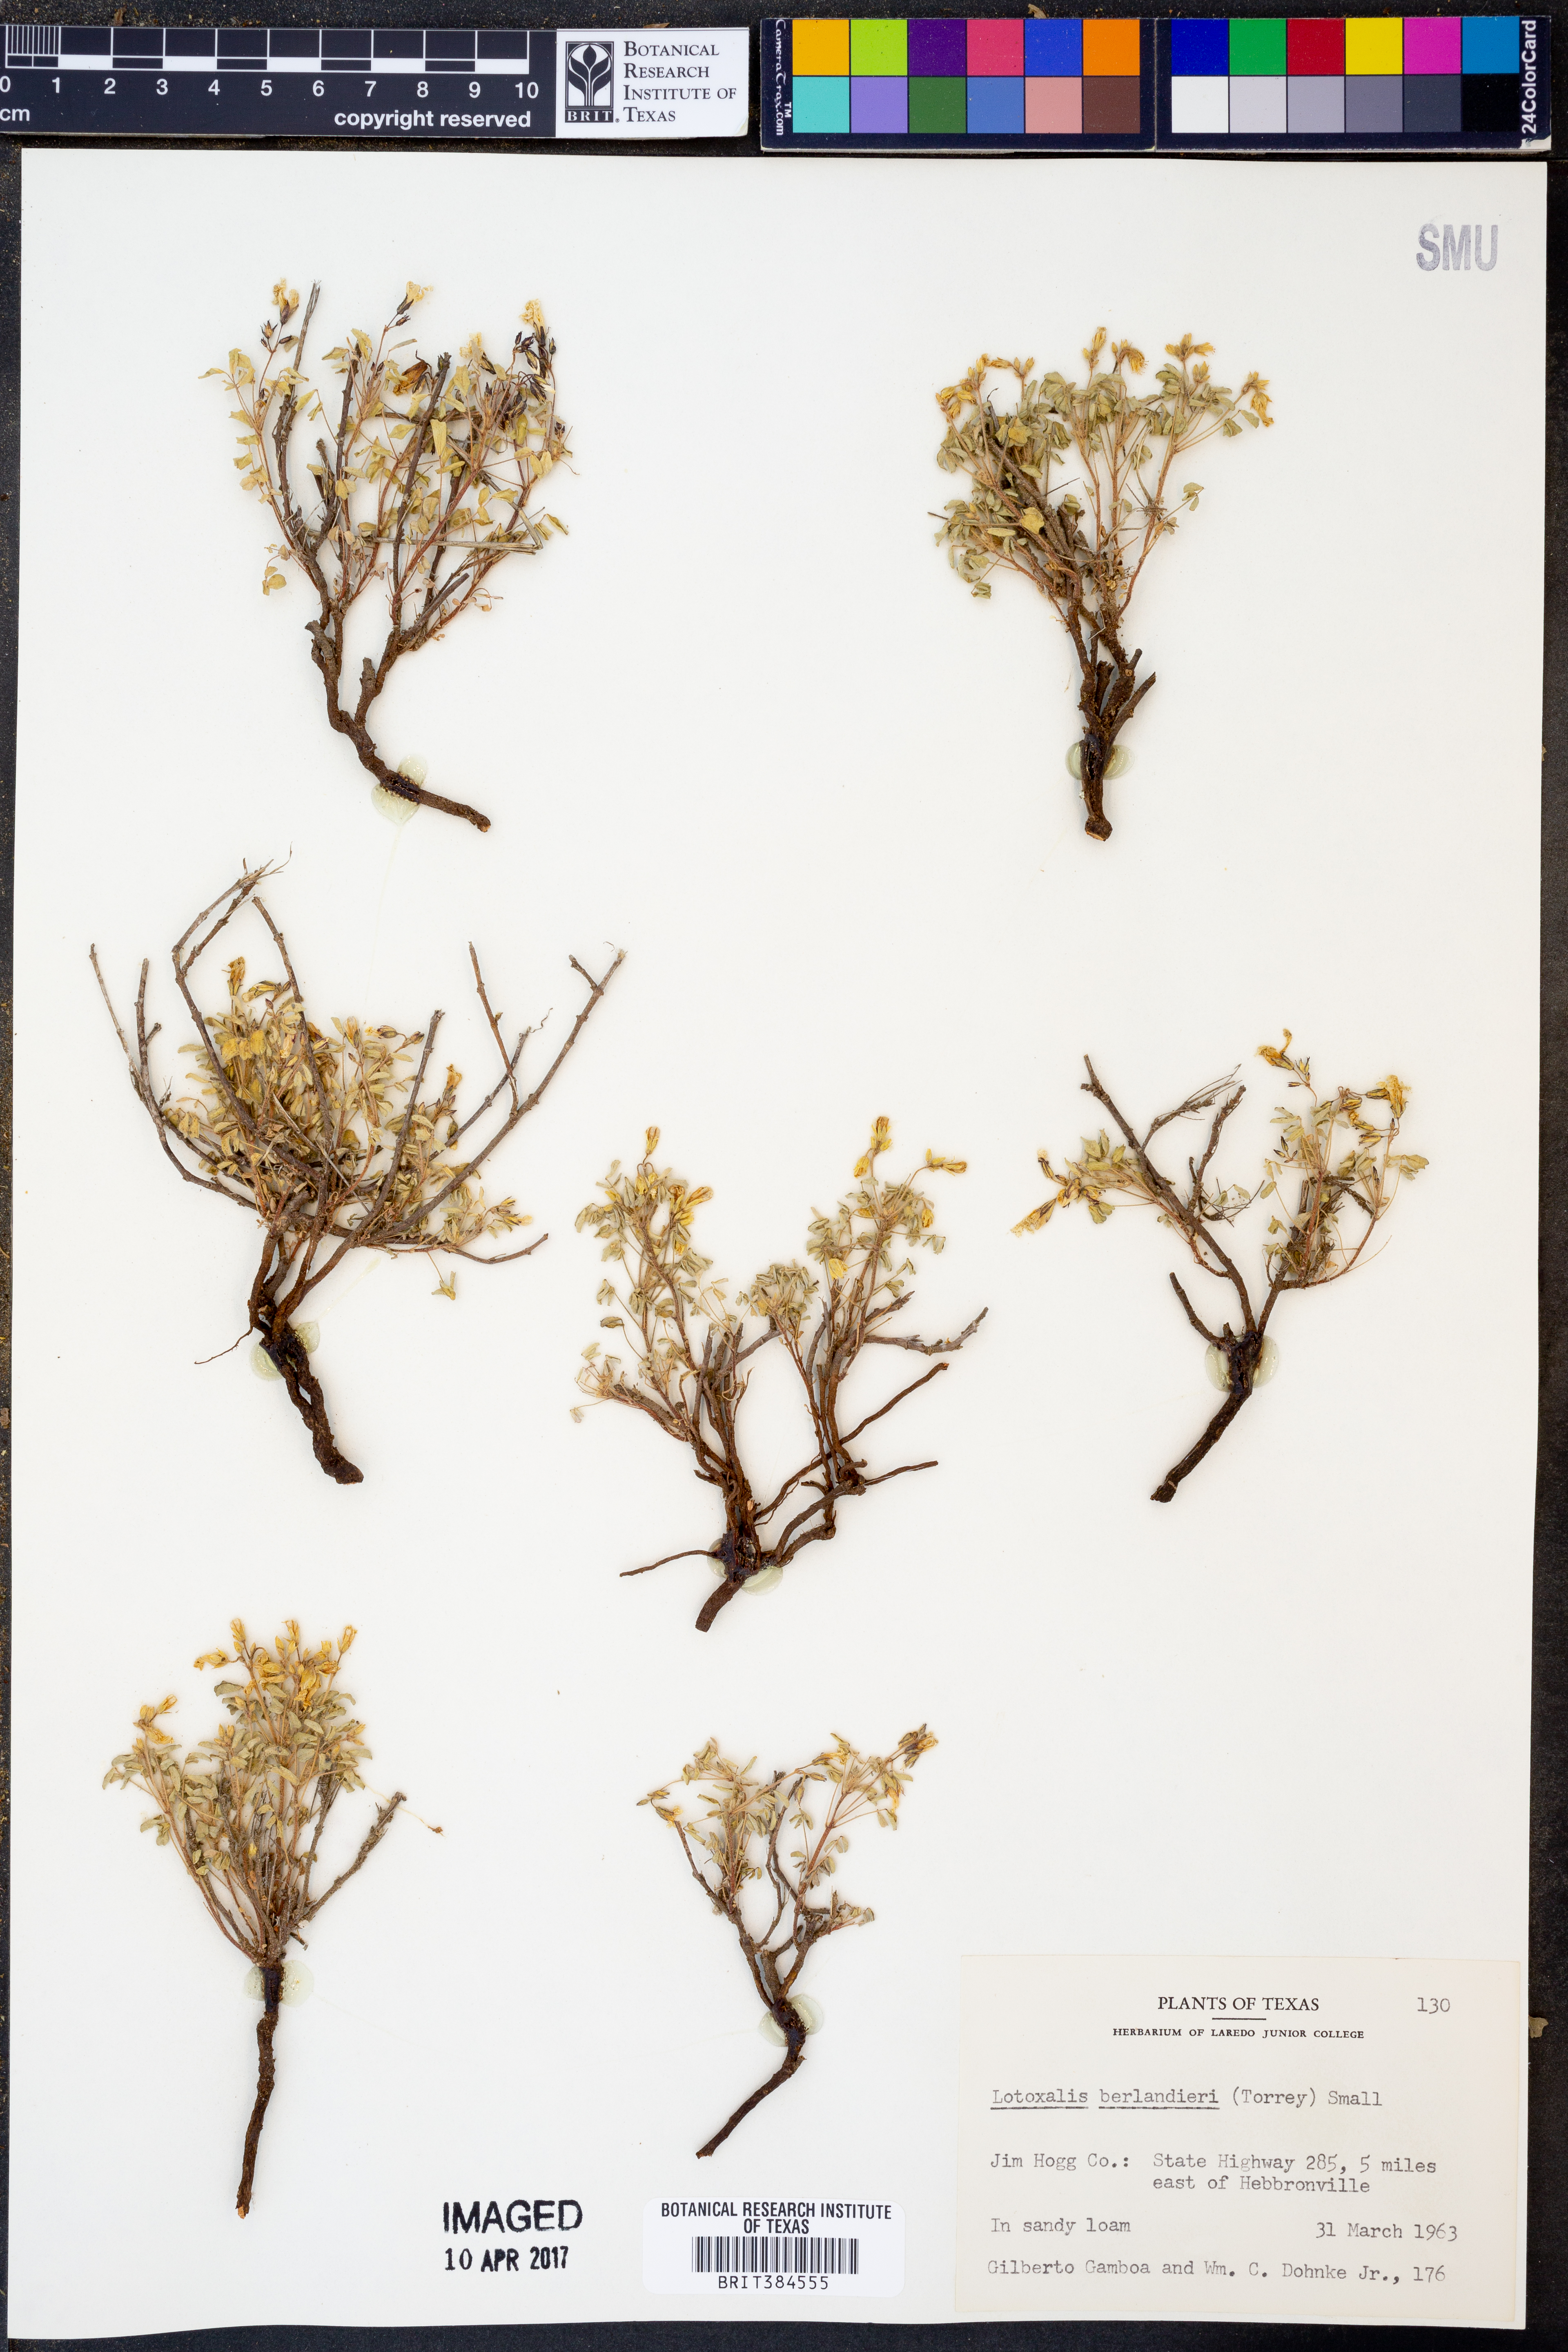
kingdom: Plantae
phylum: Tracheophyta
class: Magnoliopsida
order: Oxalidales
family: Oxalidaceae
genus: Oxalis
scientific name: Oxalis frutescens
